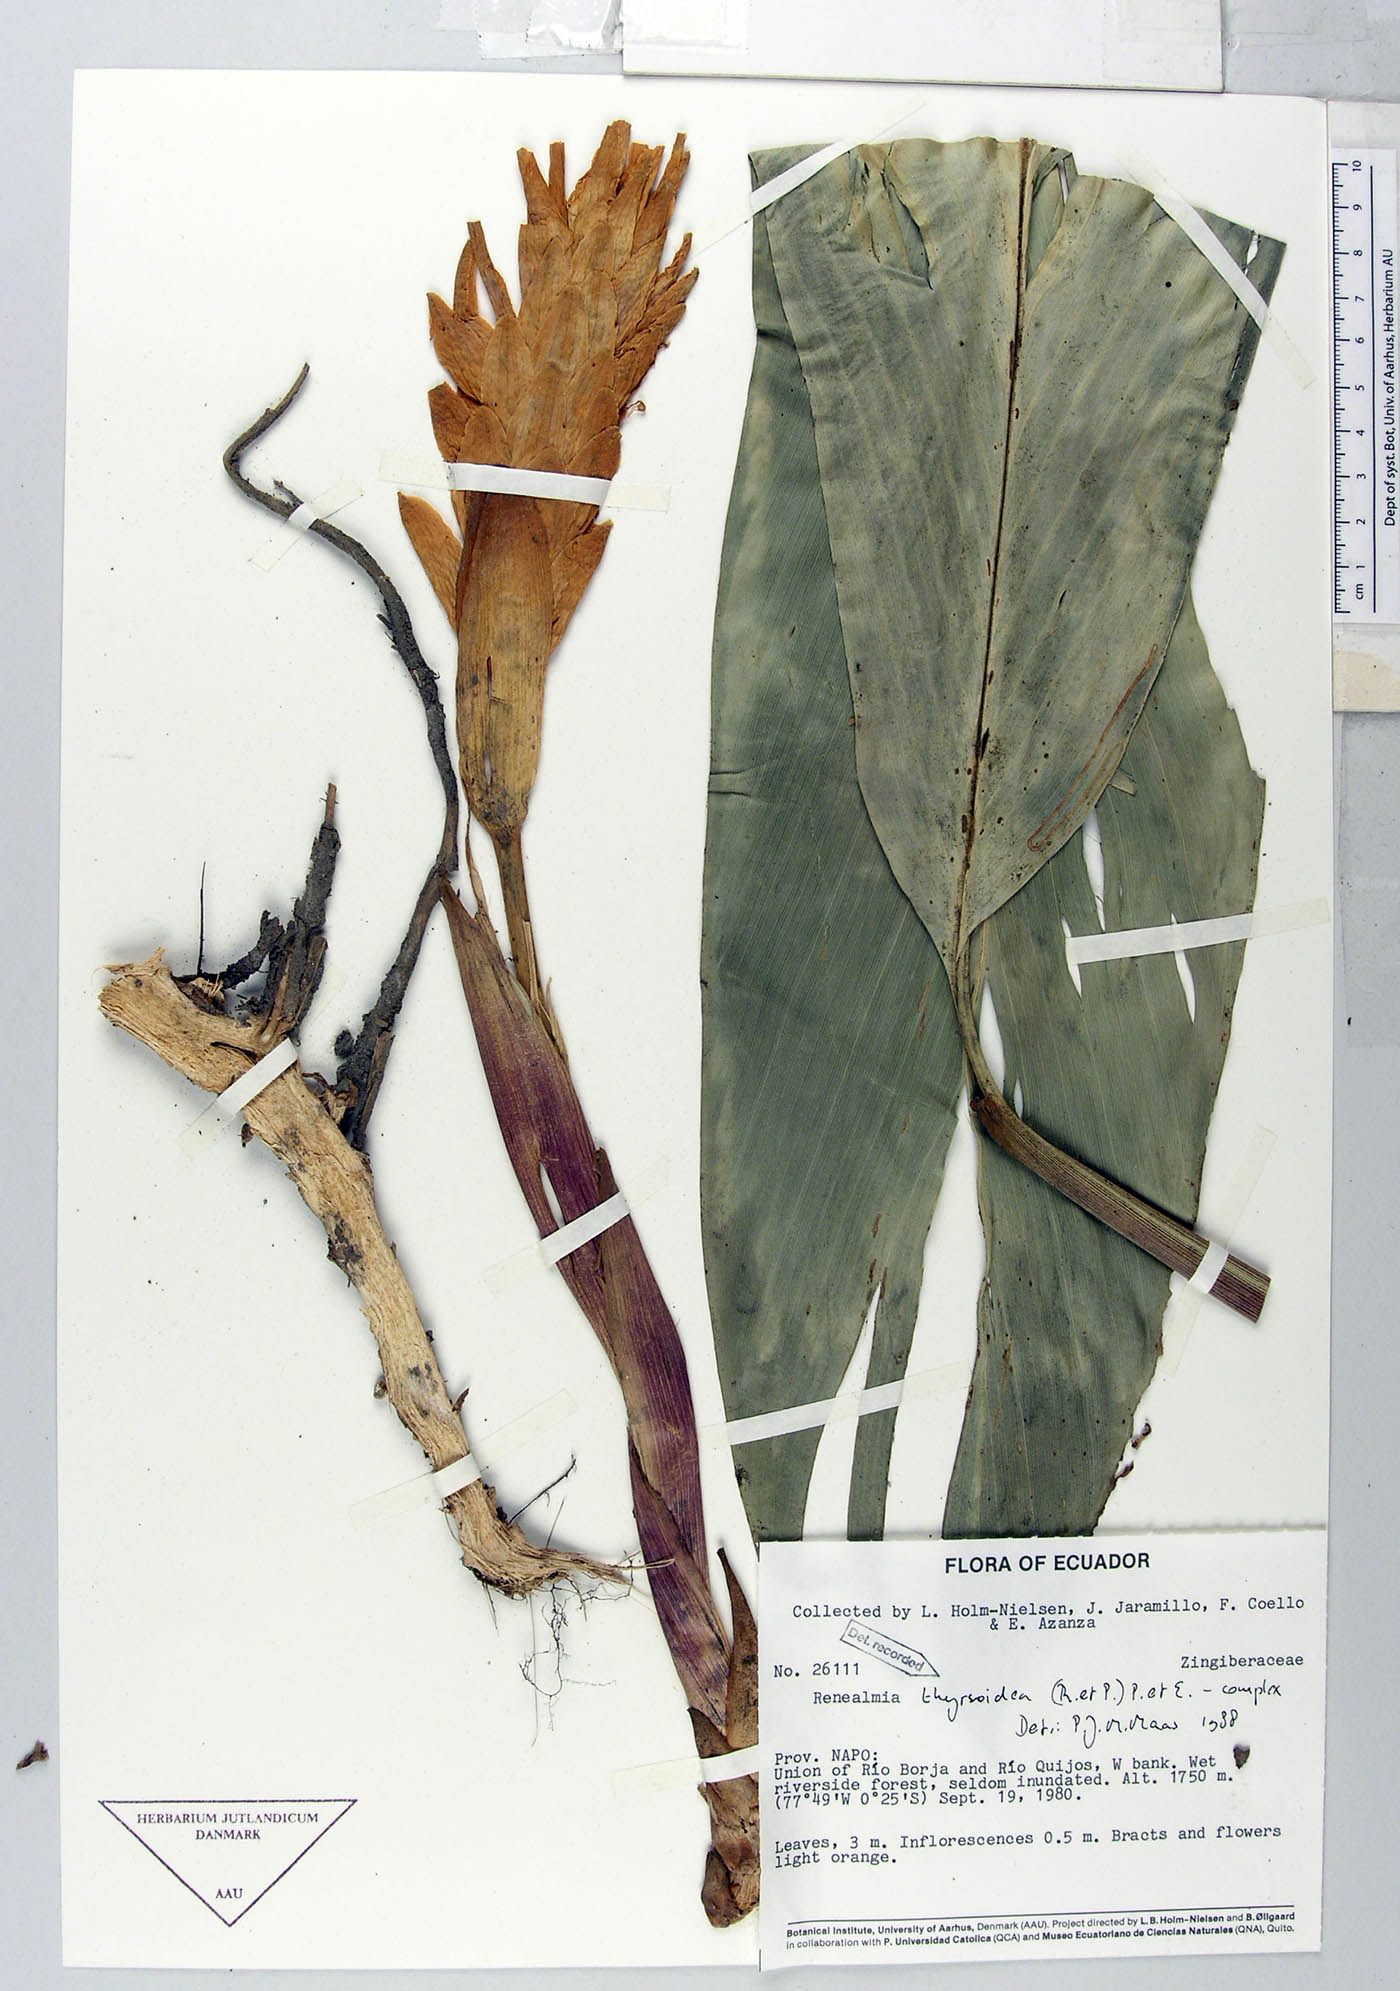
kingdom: Plantae
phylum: Tracheophyta
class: Liliopsida
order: Zingiberales
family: Zingiberaceae
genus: Renealmia
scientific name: Renealmia thyrsoidea
